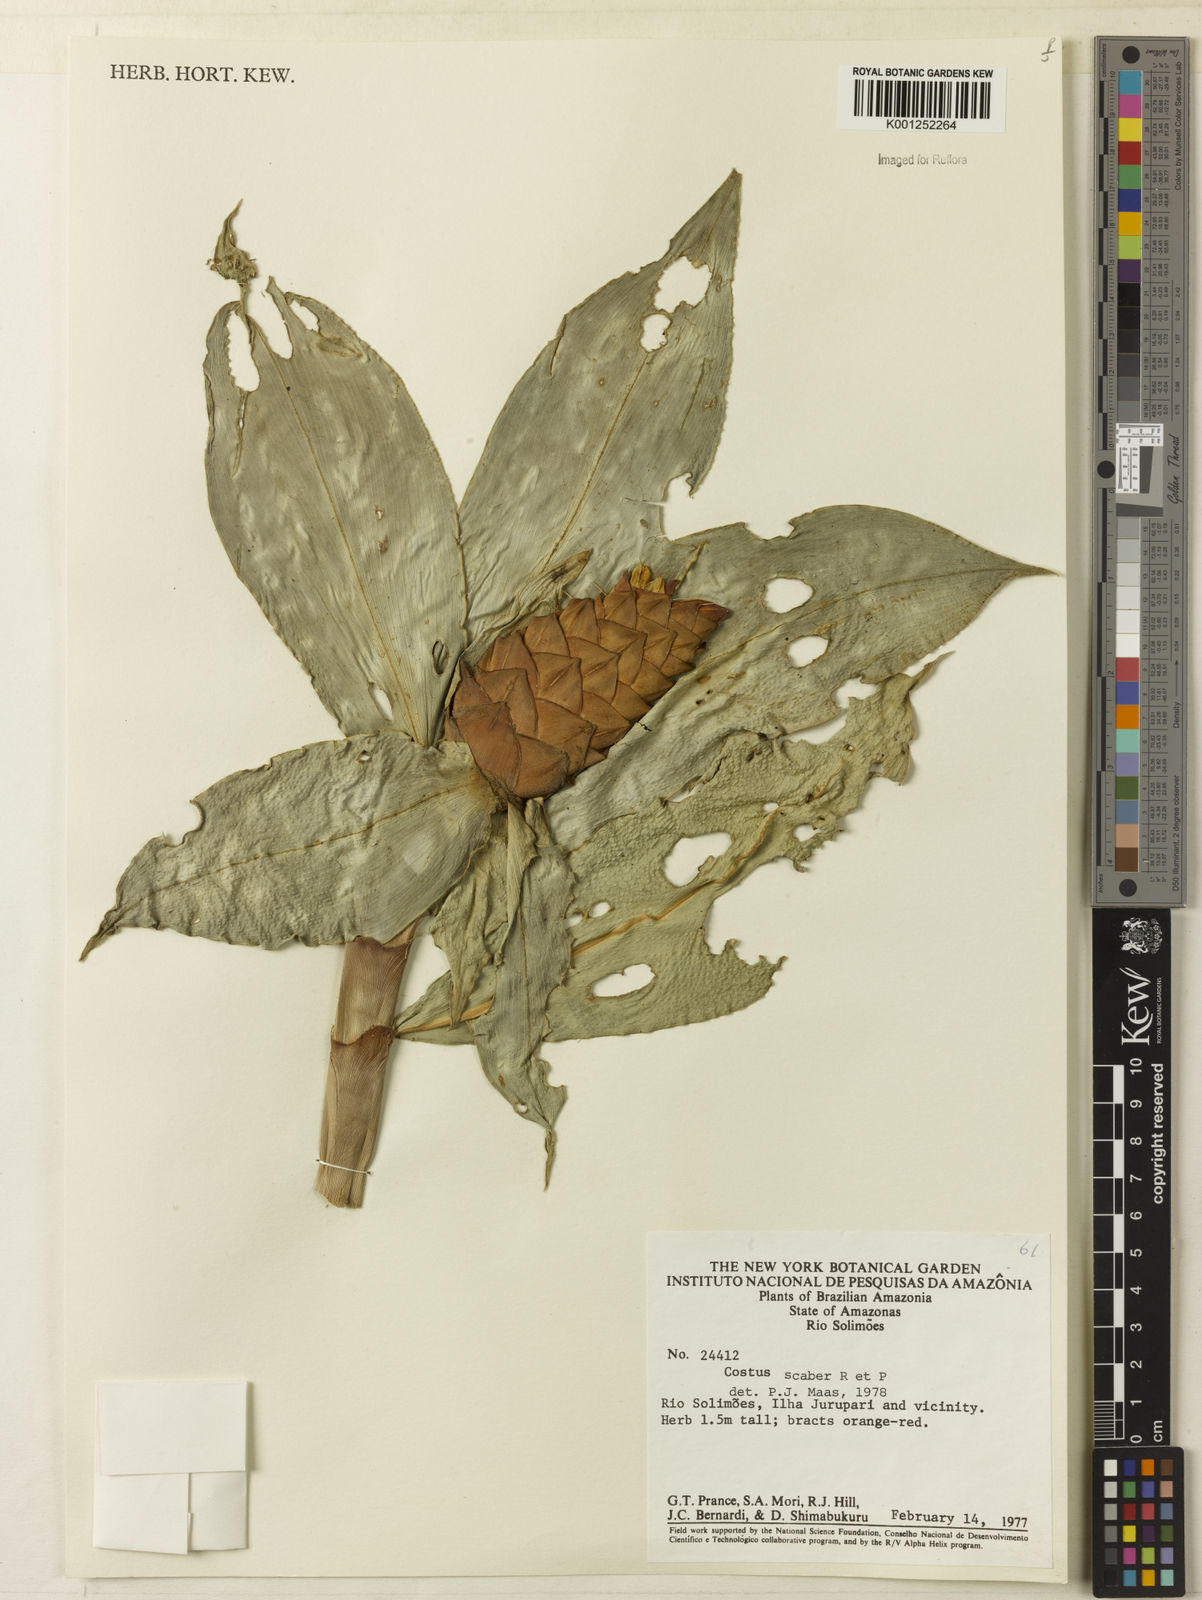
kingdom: Plantae
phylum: Tracheophyta
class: Liliopsida
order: Zingiberales
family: Costaceae
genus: Costus
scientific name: Costus scaber
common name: Spiral head ginger
